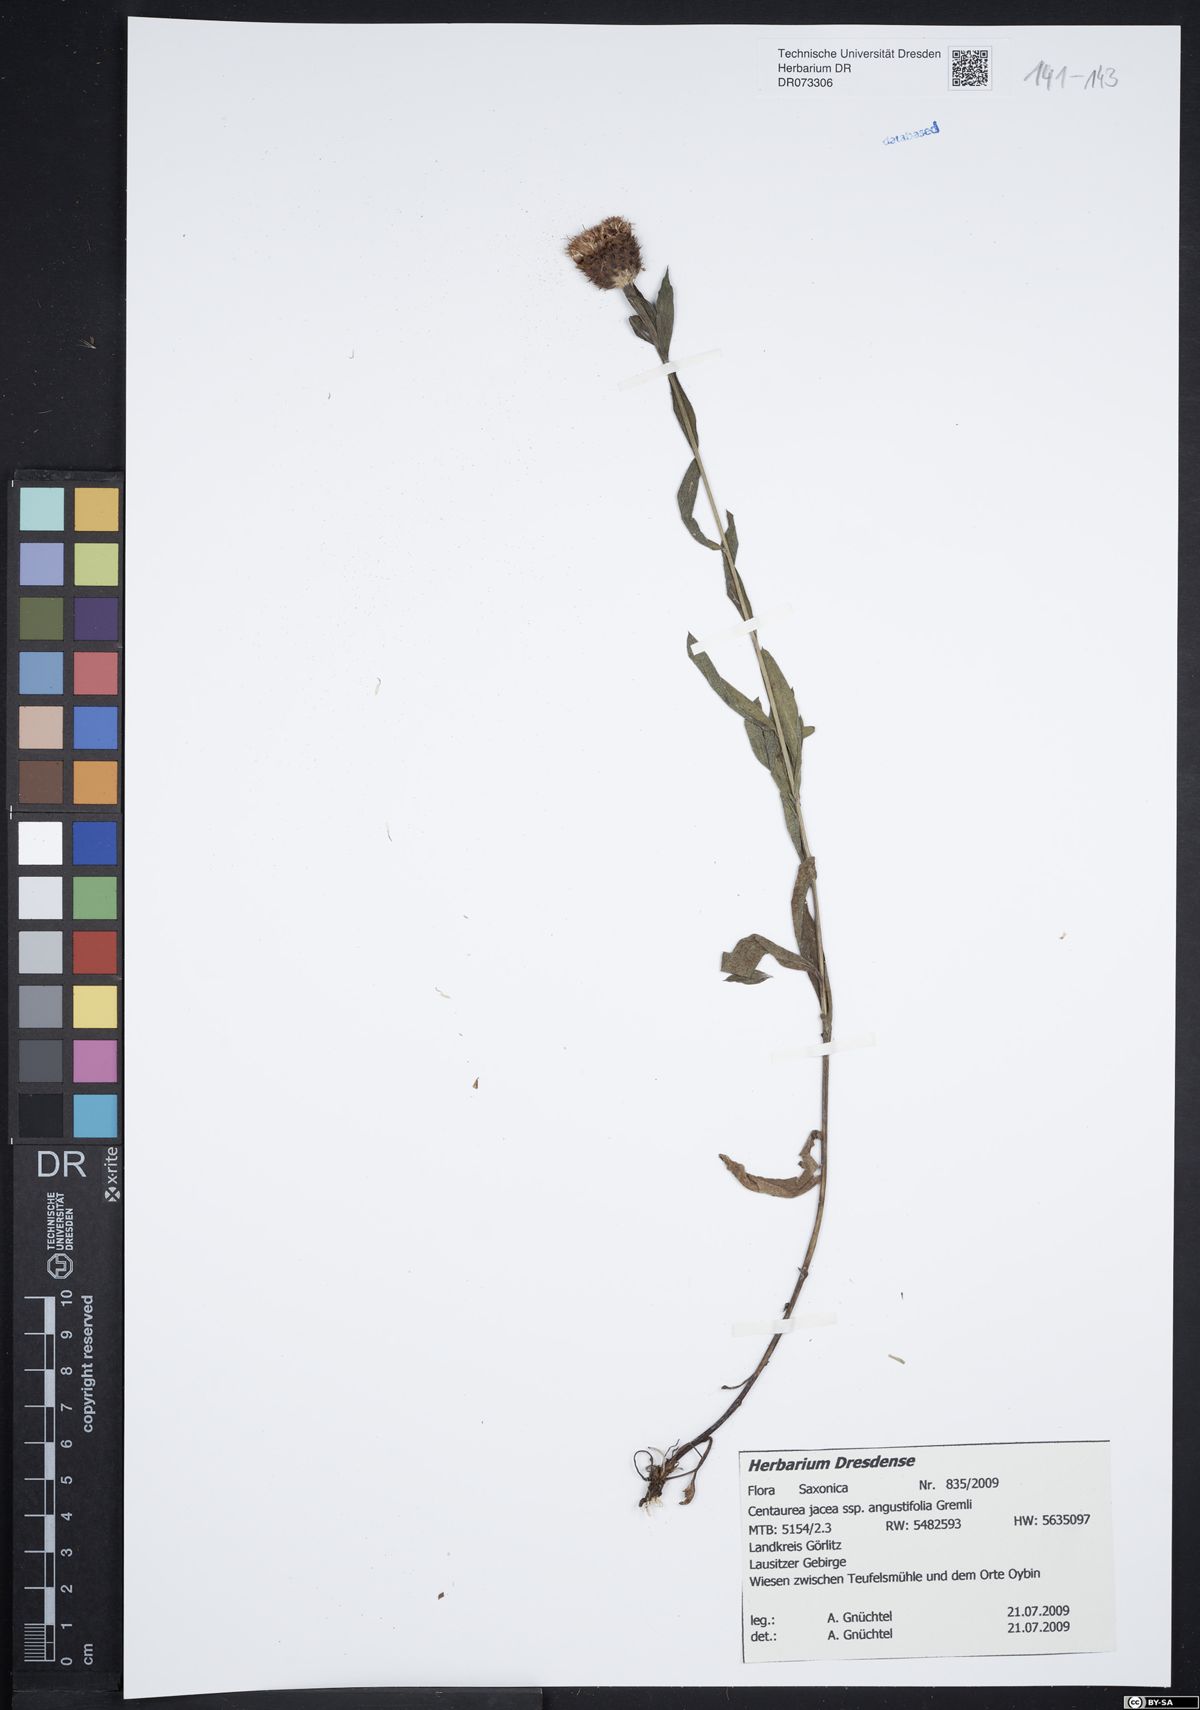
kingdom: Plantae
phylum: Tracheophyta
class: Magnoliopsida
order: Asterales
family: Asteraceae
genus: Centaurea
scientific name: Centaurea pannonica
